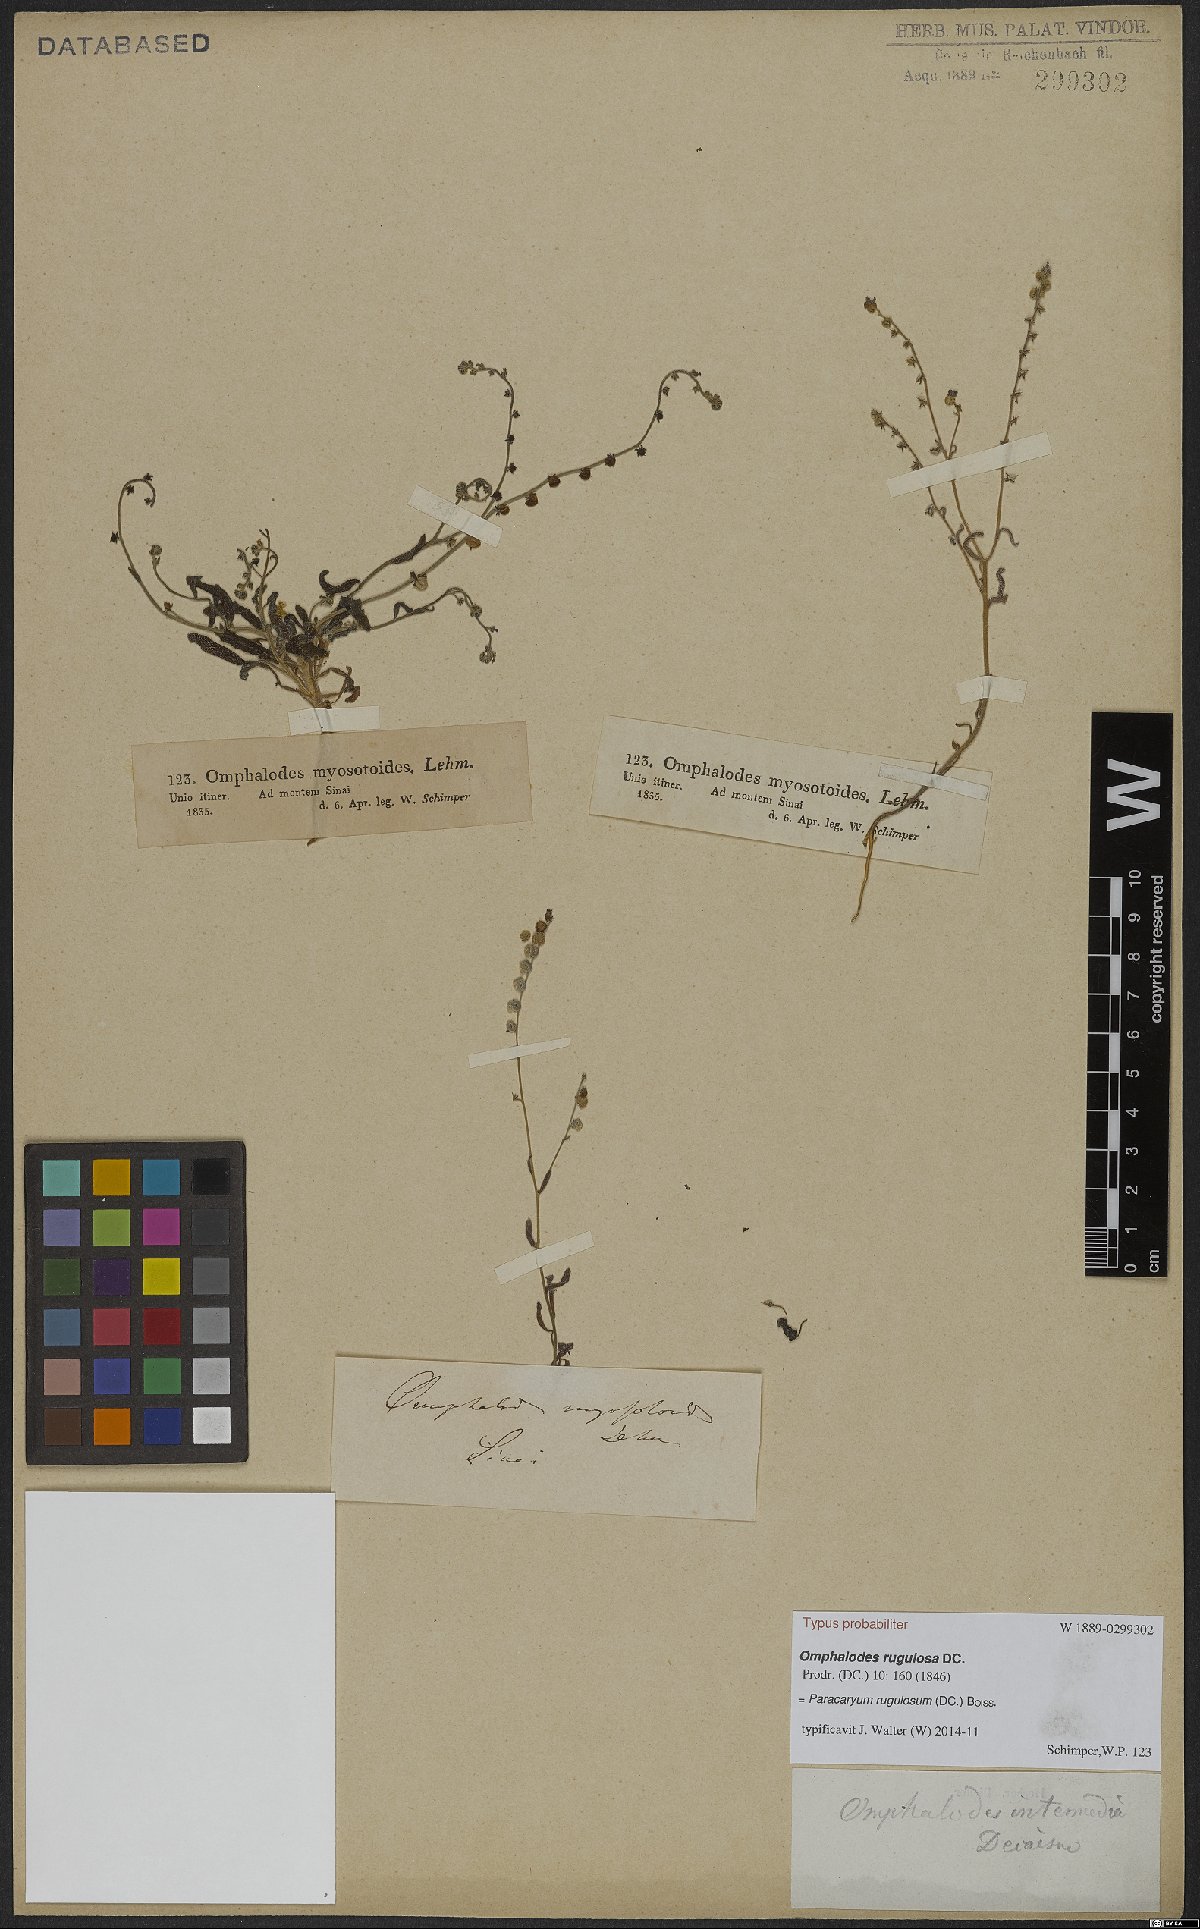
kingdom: Plantae
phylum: Tracheophyta
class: Magnoliopsida
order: Boraginales
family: Boraginaceae
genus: Paracaryum
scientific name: Paracaryum rugulosum
